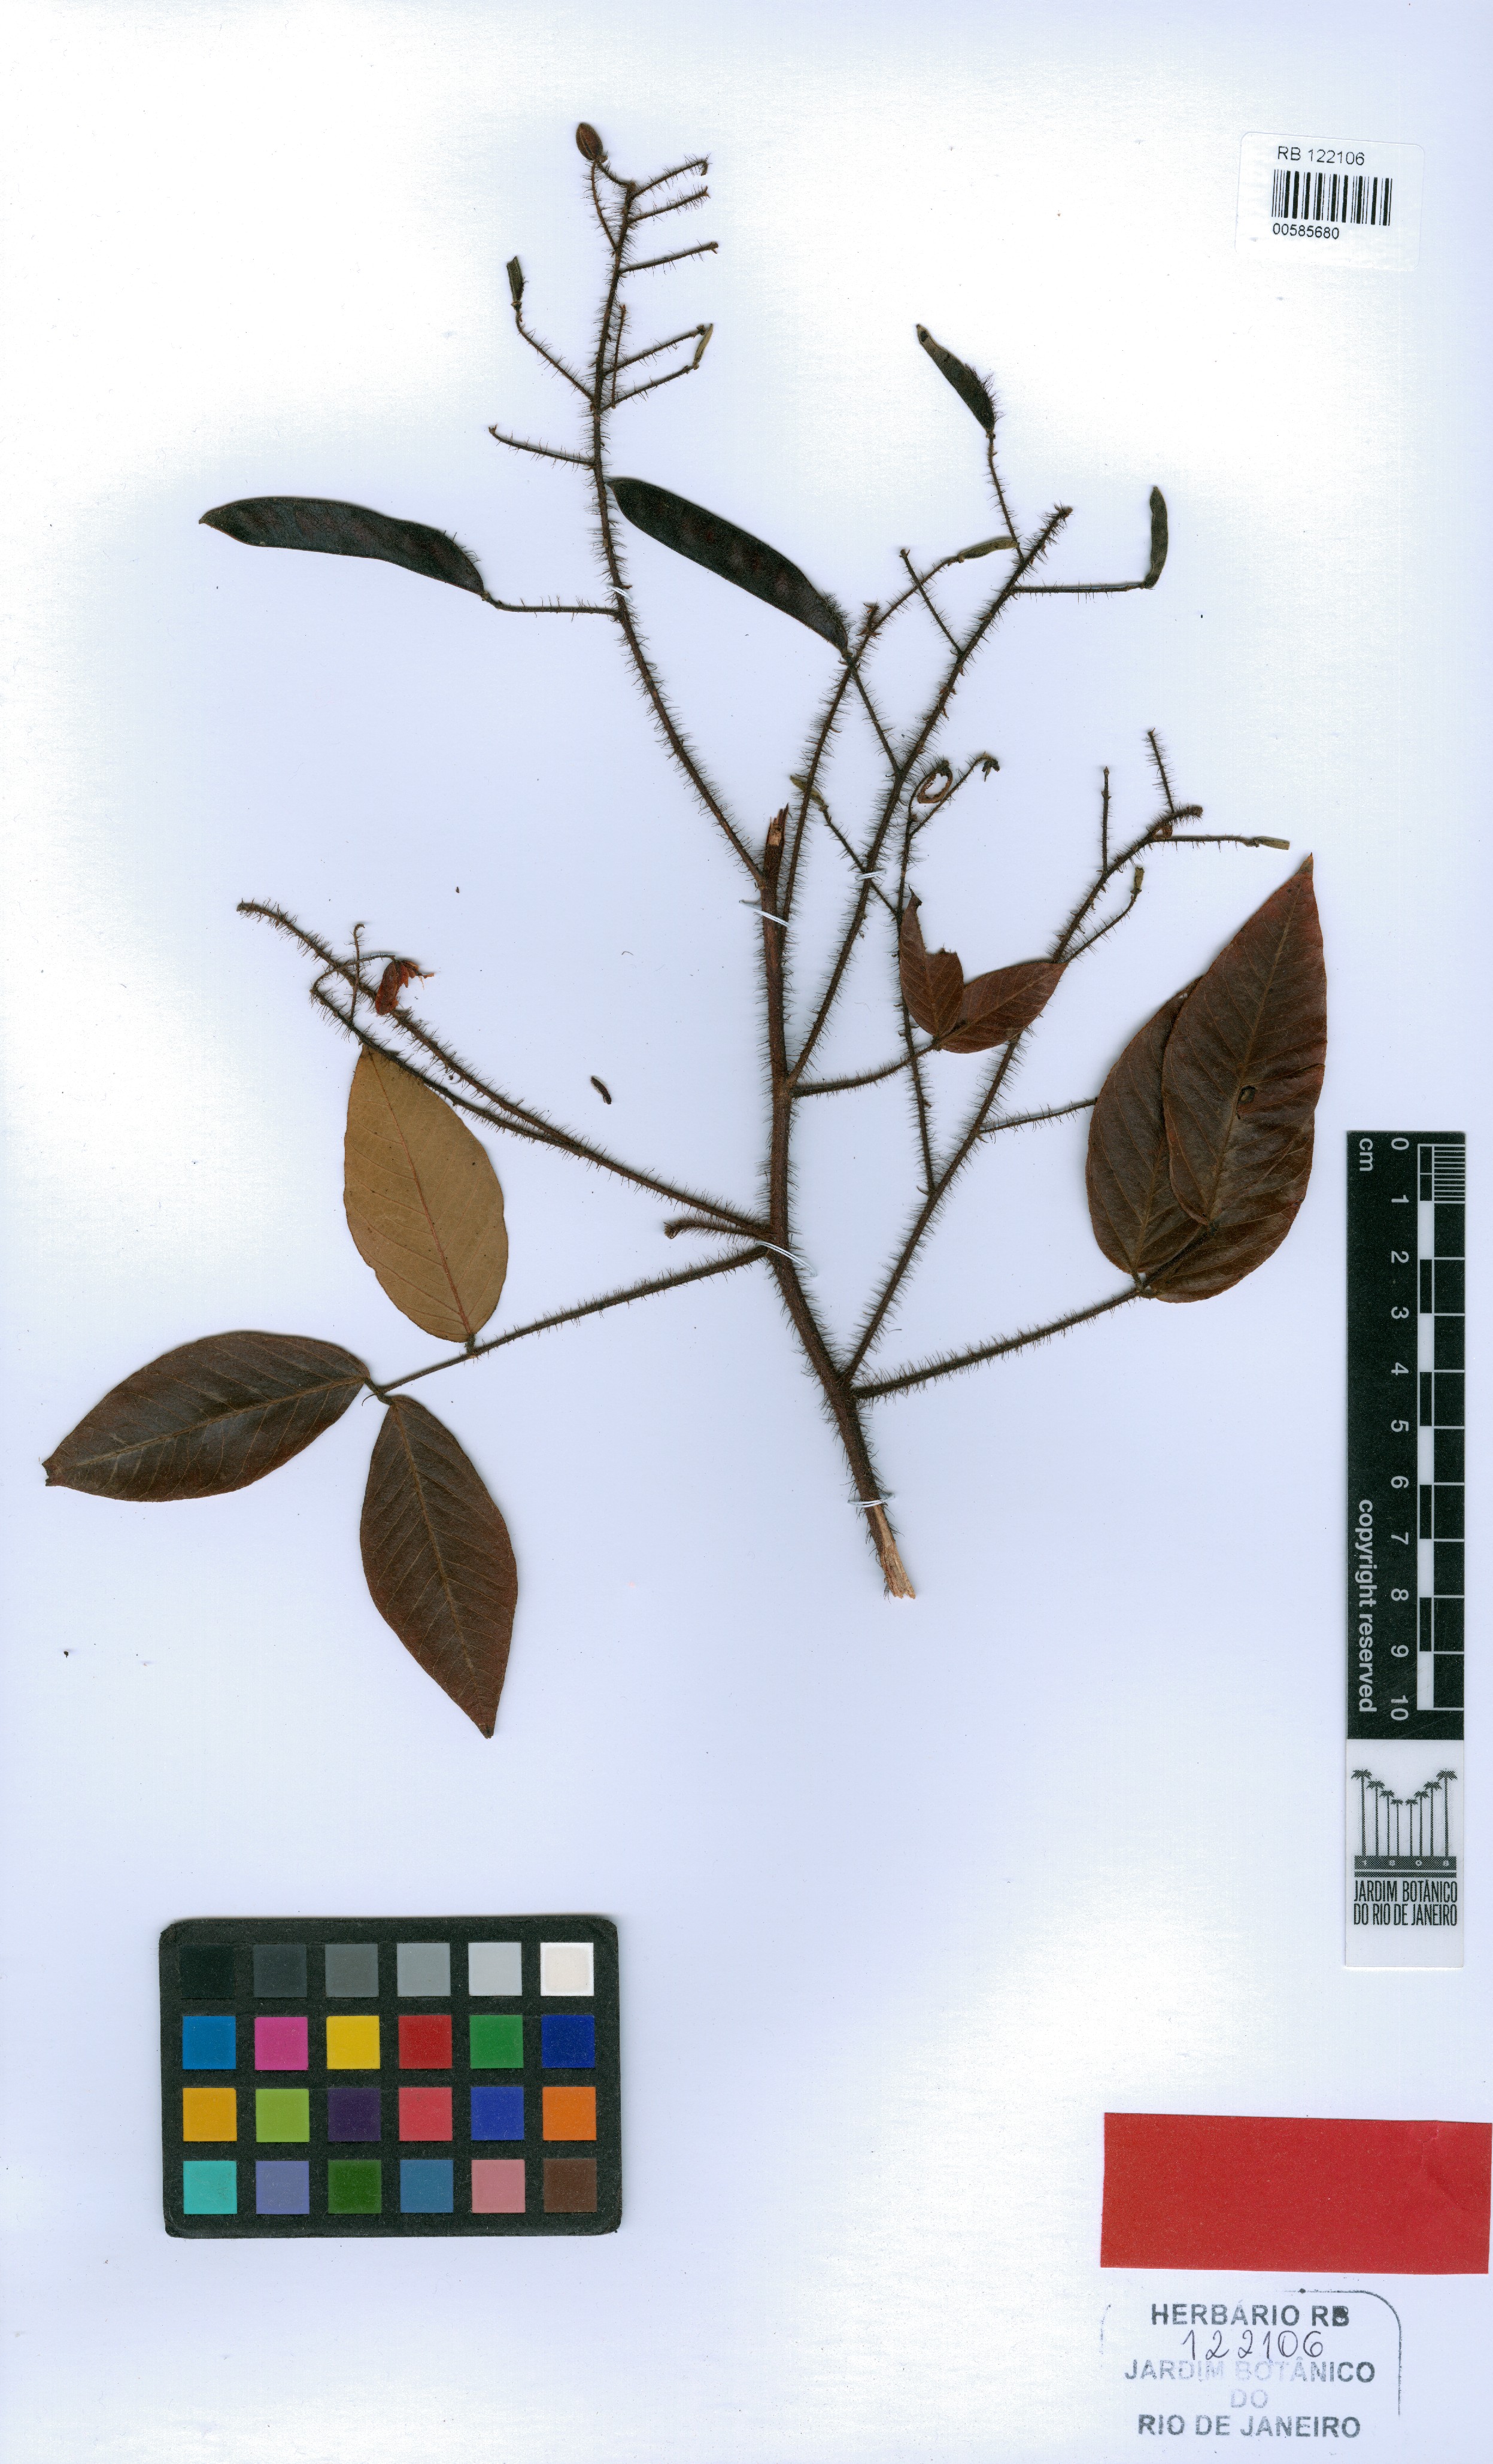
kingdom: Plantae
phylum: Tracheophyta
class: Magnoliopsida
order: Fabales
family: Fabaceae
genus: Cassia
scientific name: Cassia mystacicarpa
